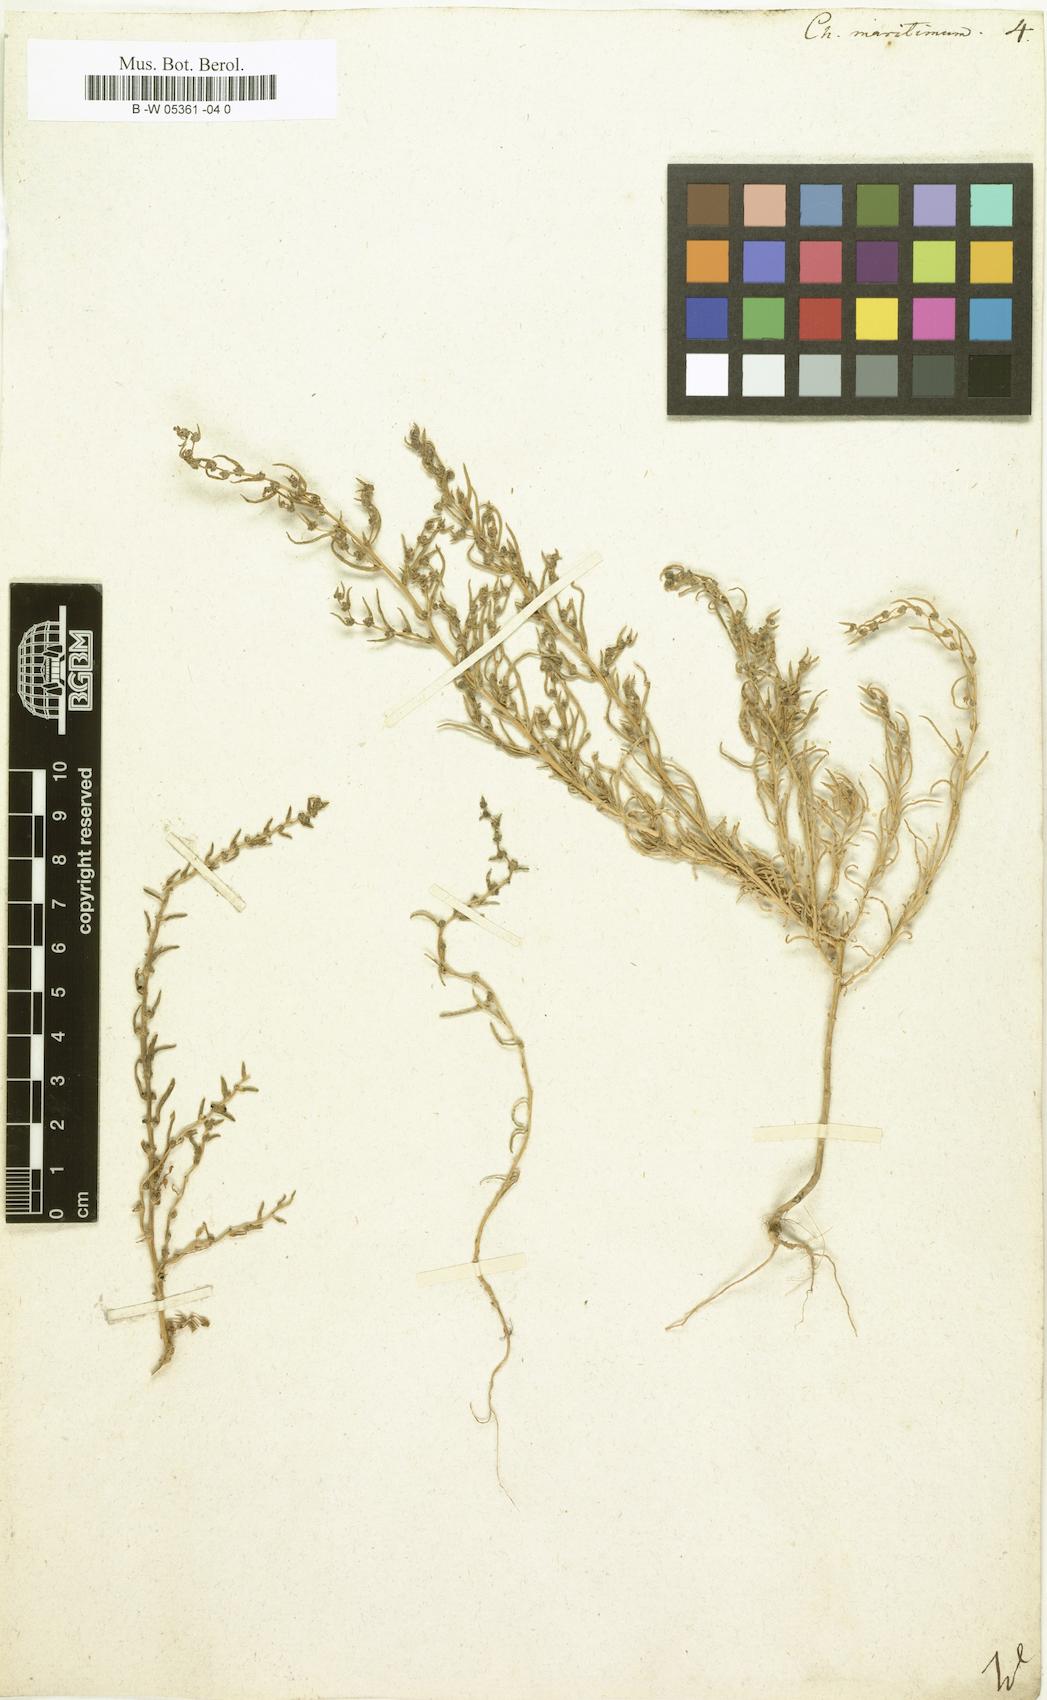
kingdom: Plantae
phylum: Tracheophyta
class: Magnoliopsida
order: Caryophyllales
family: Amaranthaceae
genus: Suaeda
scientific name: Suaeda
